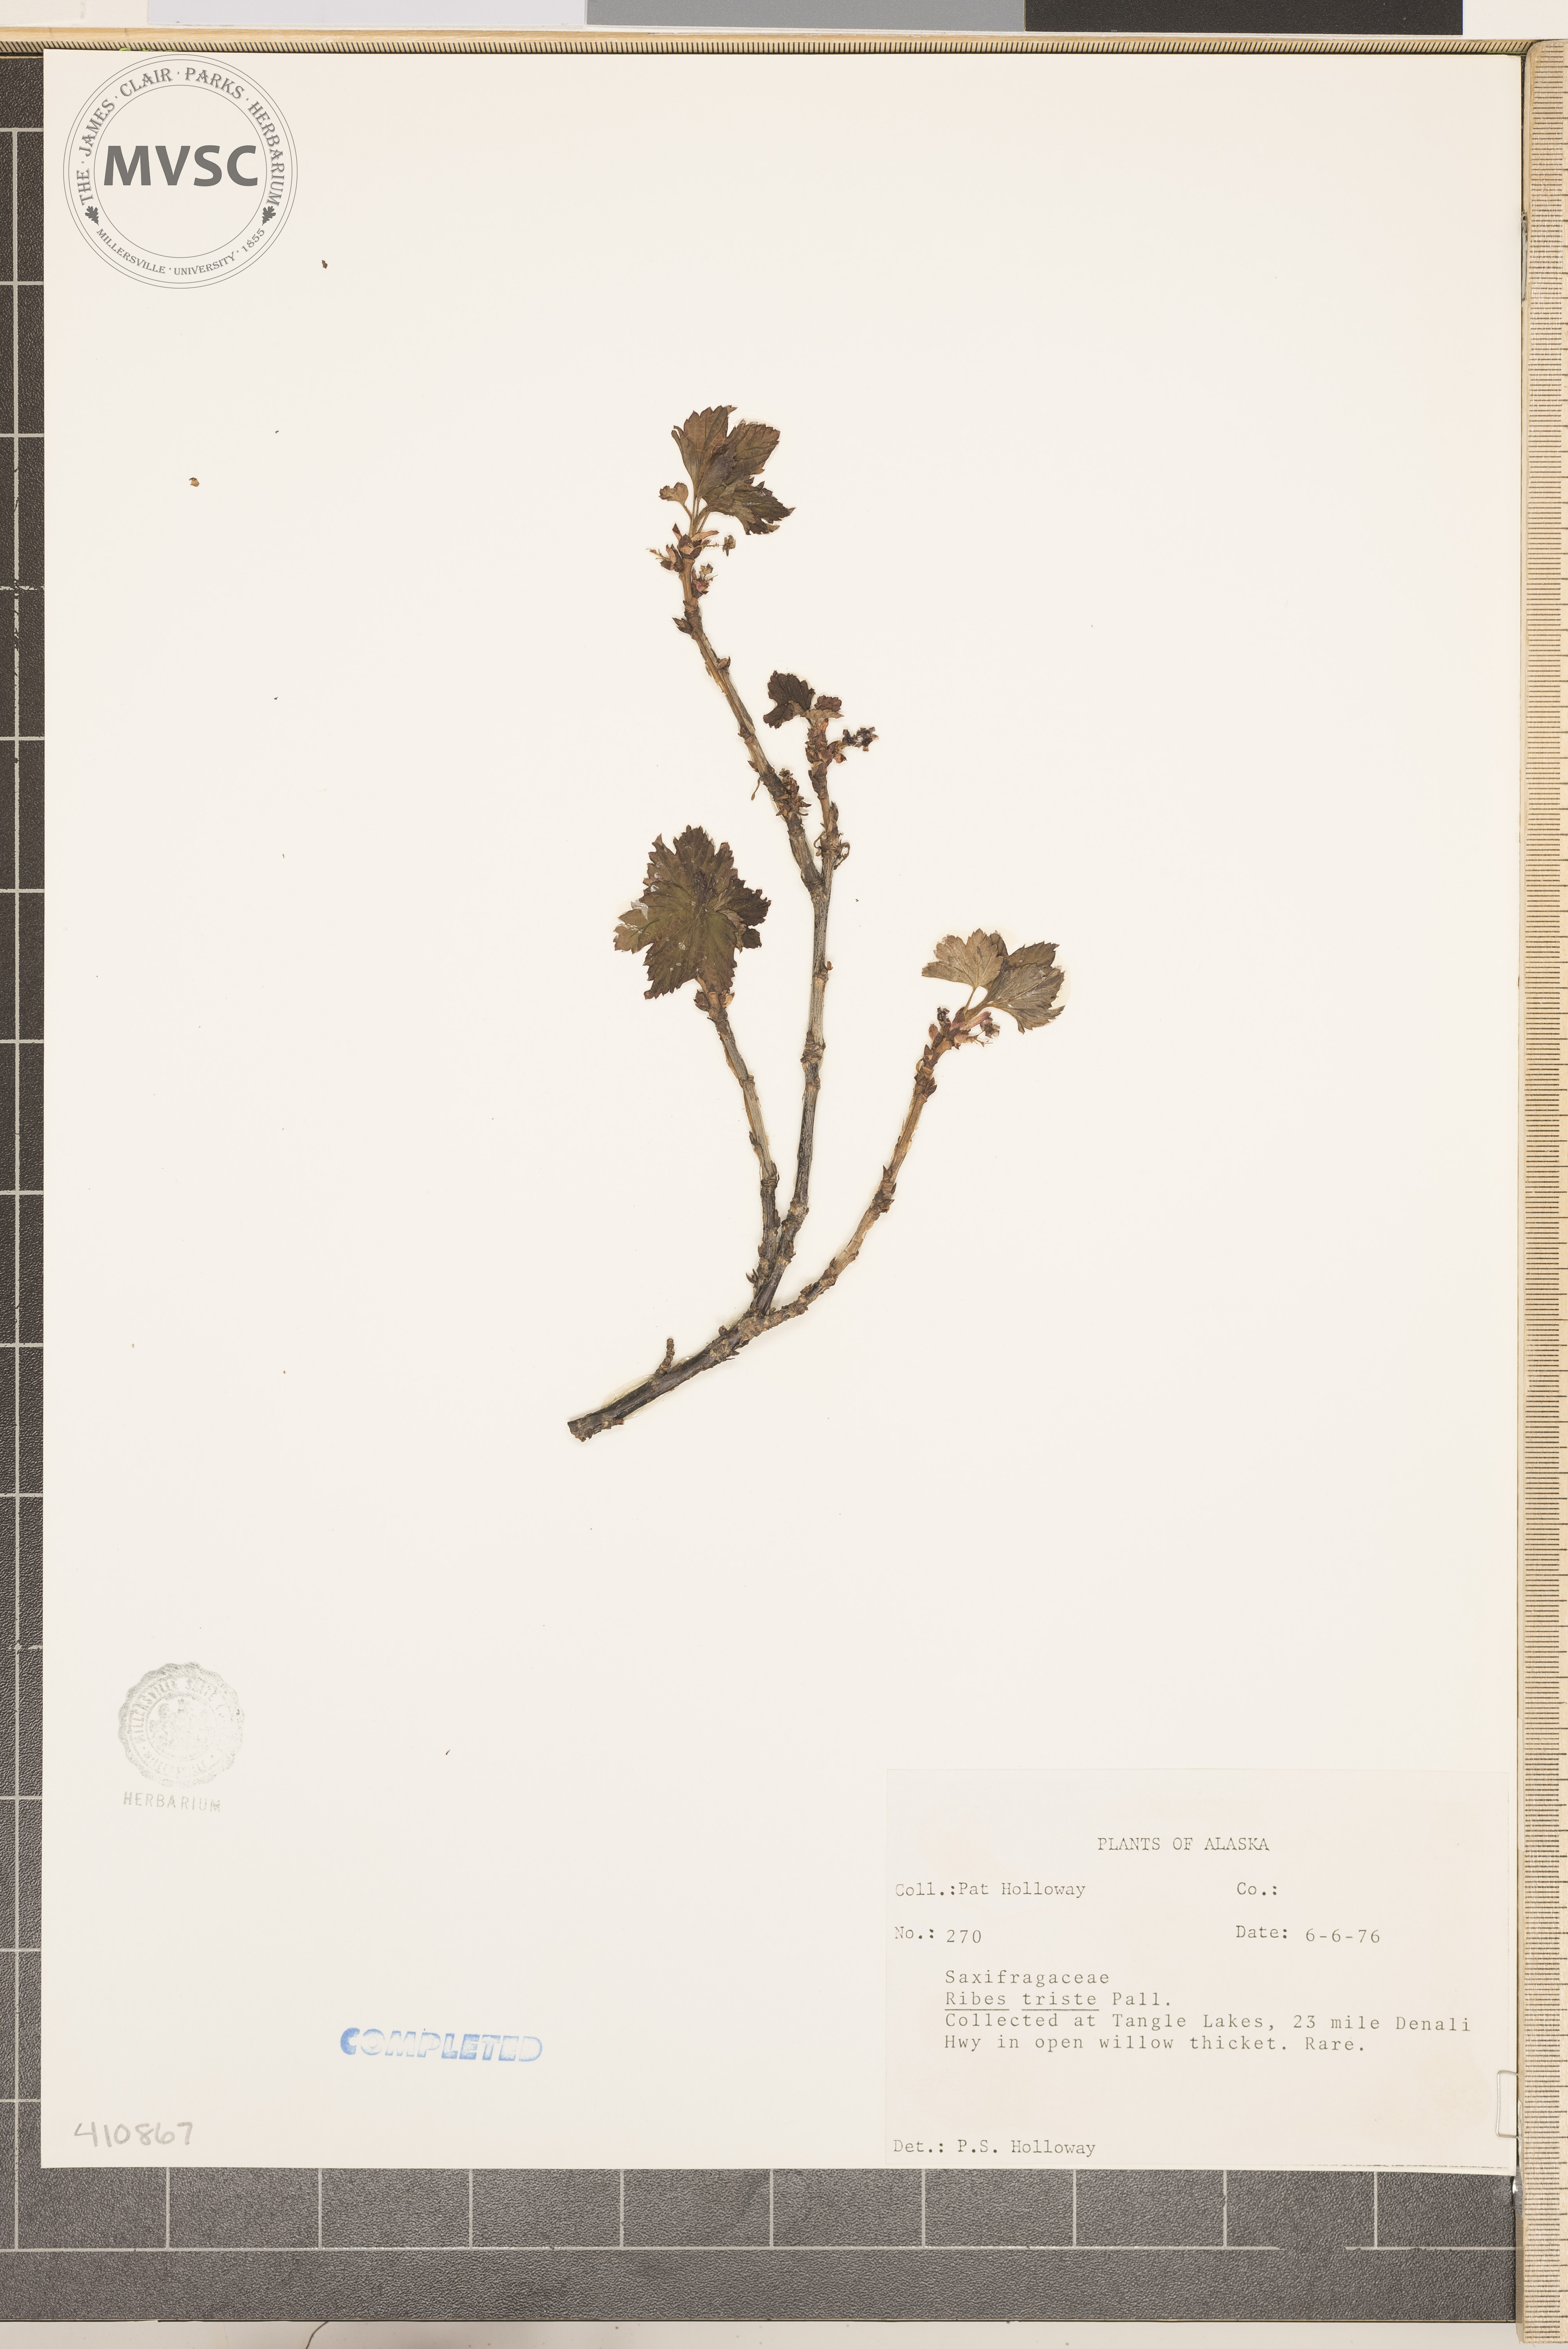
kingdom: Plantae
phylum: Tracheophyta
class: Magnoliopsida
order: Saxifragales
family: Grossulariaceae
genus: Ribes
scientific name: Ribes triste
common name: Gooseberry
